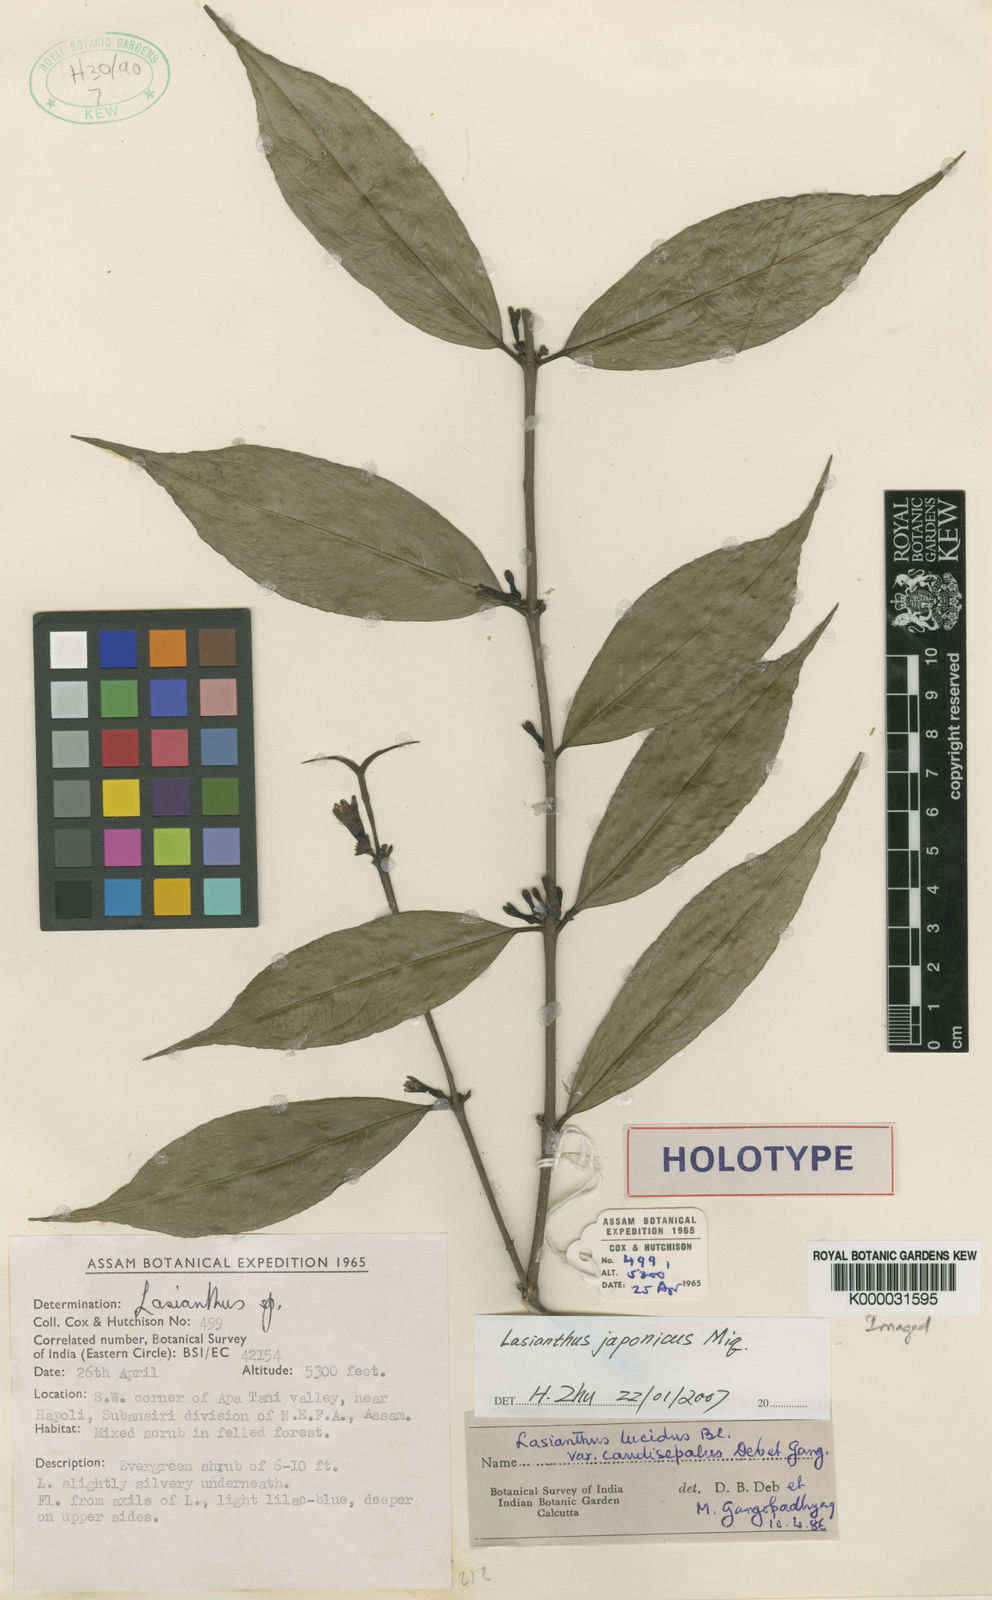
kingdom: Plantae
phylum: Tracheophyta
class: Magnoliopsida
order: Gentianales
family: Rubiaceae
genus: Lasianthus
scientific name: Lasianthus japonicus
